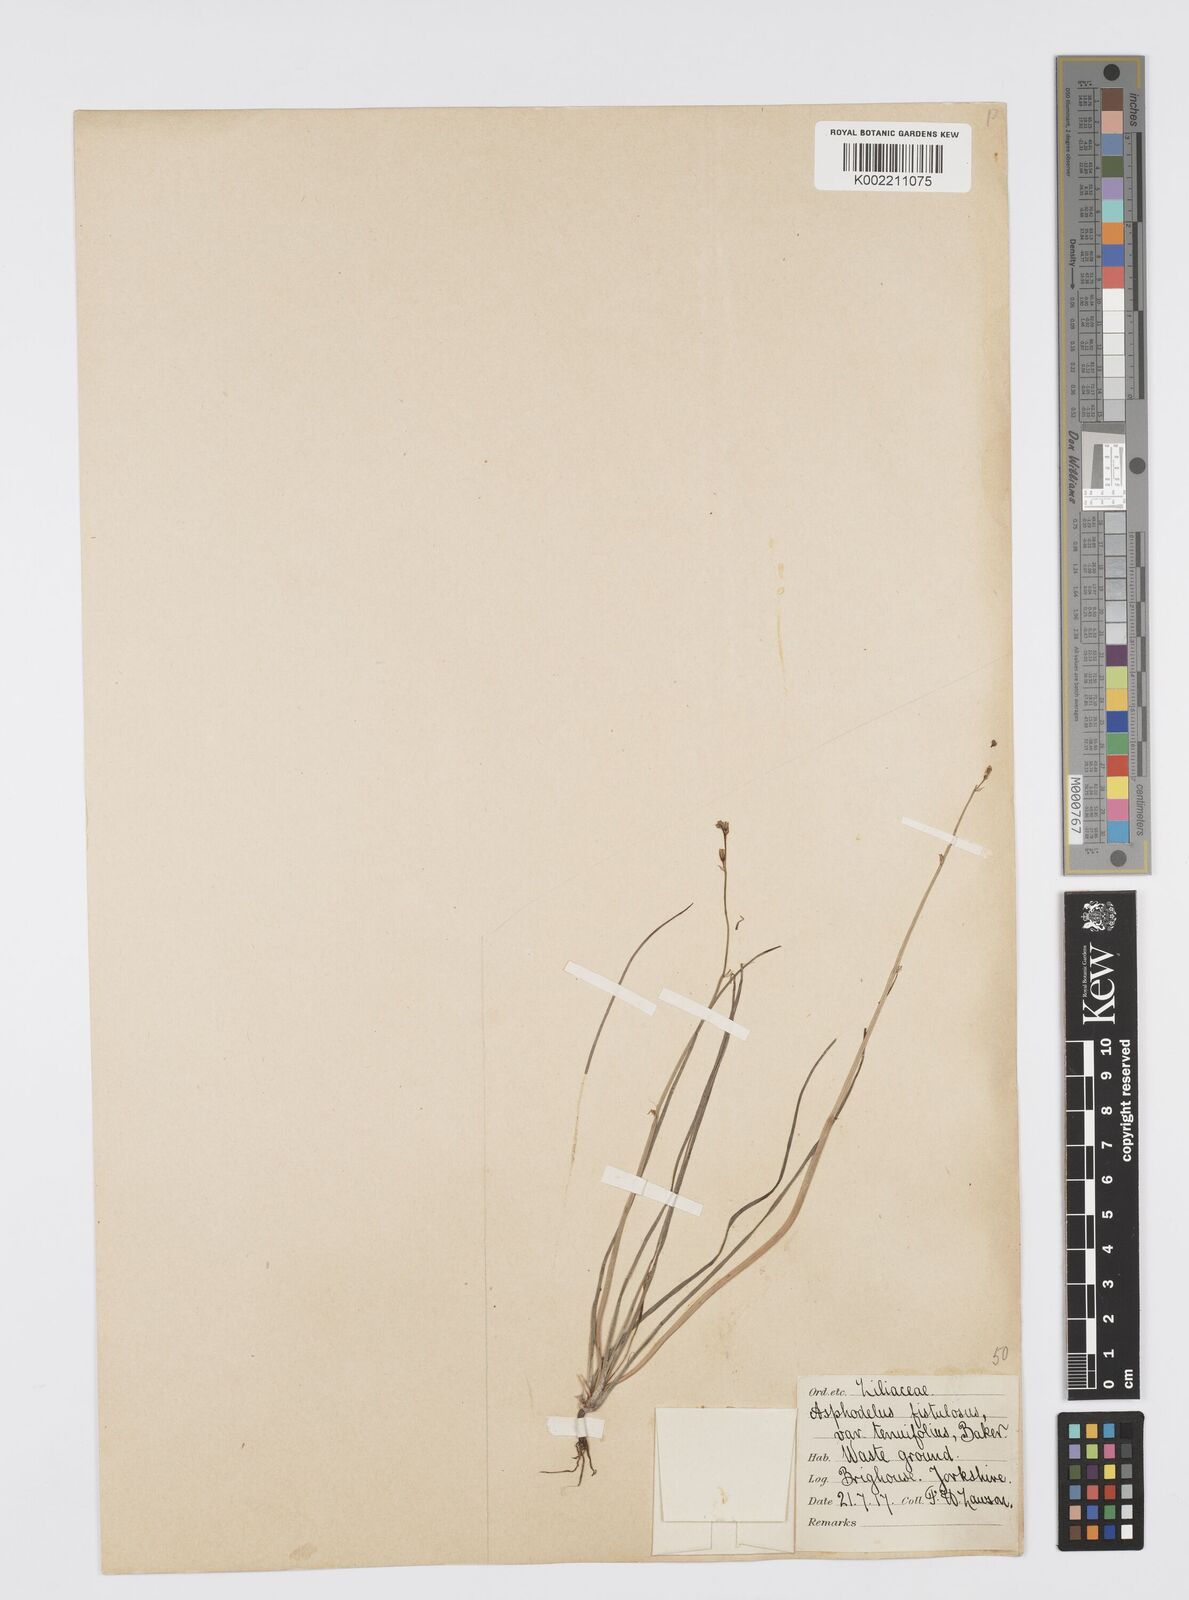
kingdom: Plantae
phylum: Tracheophyta
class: Liliopsida
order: Asparagales
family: Asphodelaceae
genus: Asphodelus
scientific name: Asphodelus tenuifolius
